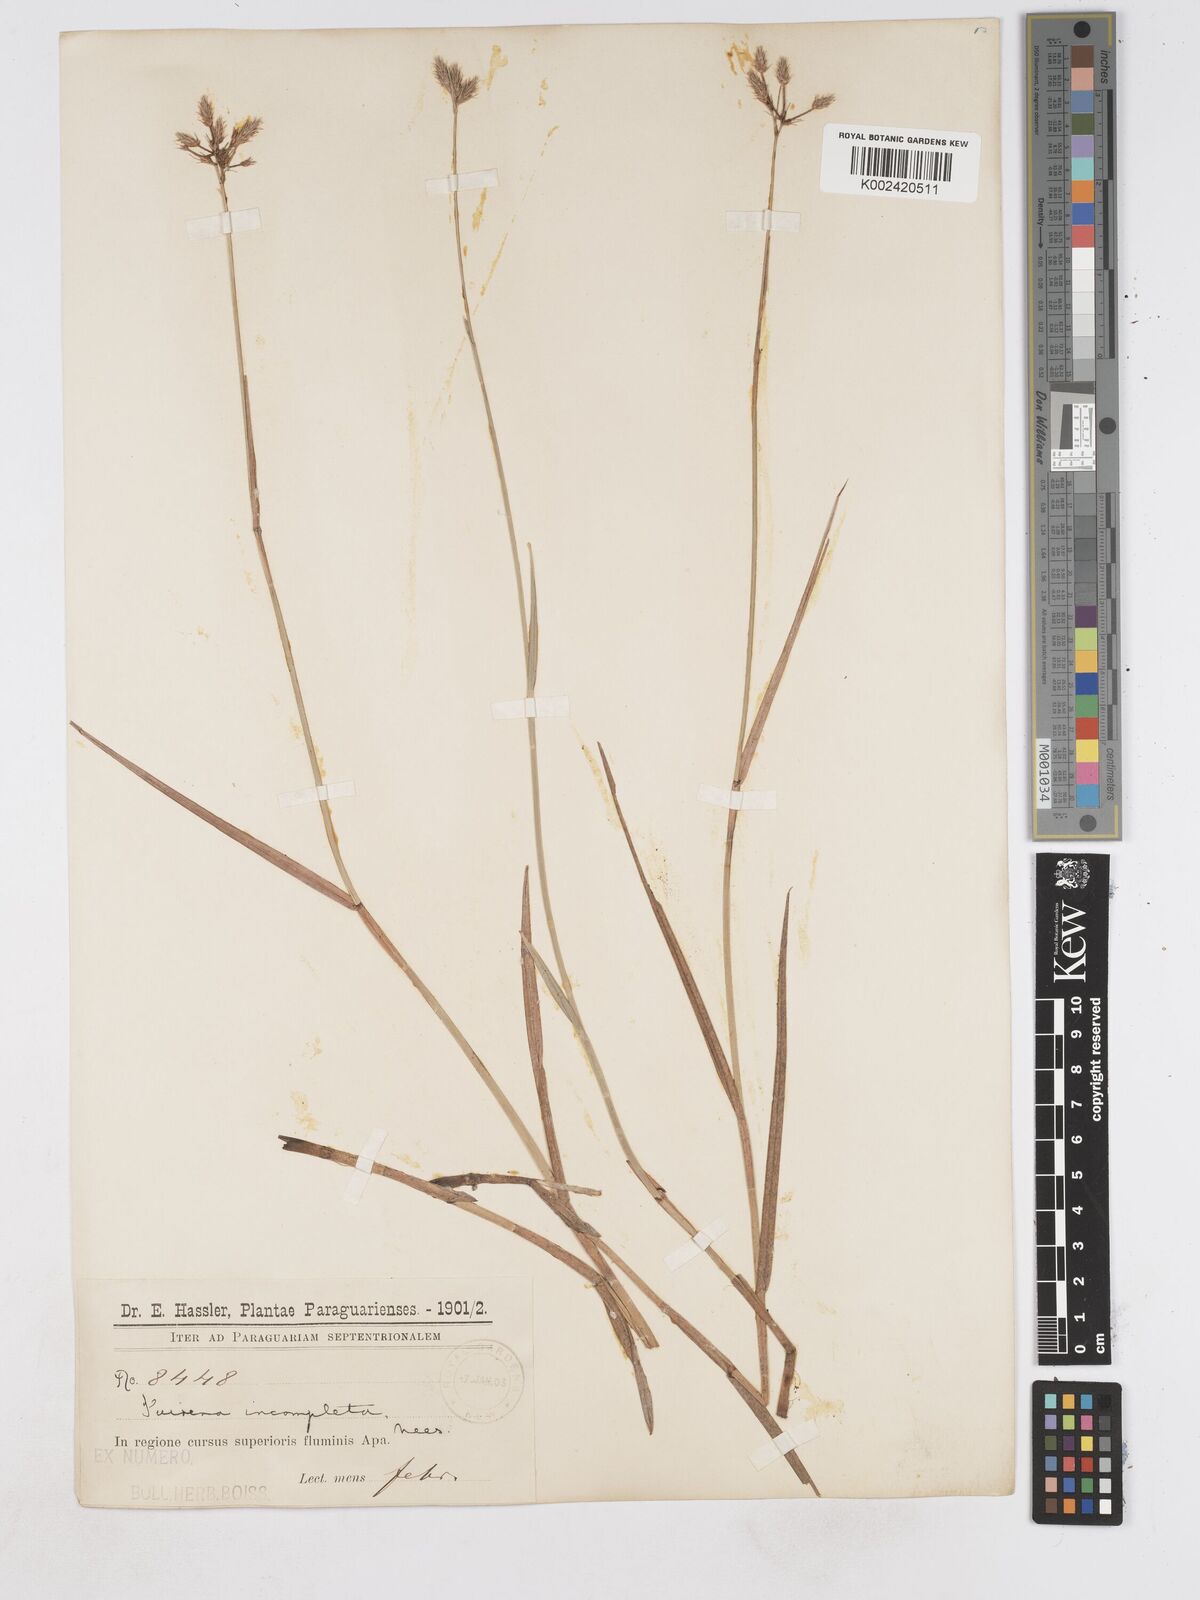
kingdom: Plantae
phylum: Tracheophyta
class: Liliopsida
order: Poales
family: Cyperaceae
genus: Fuirena
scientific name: Fuirena incompleta
